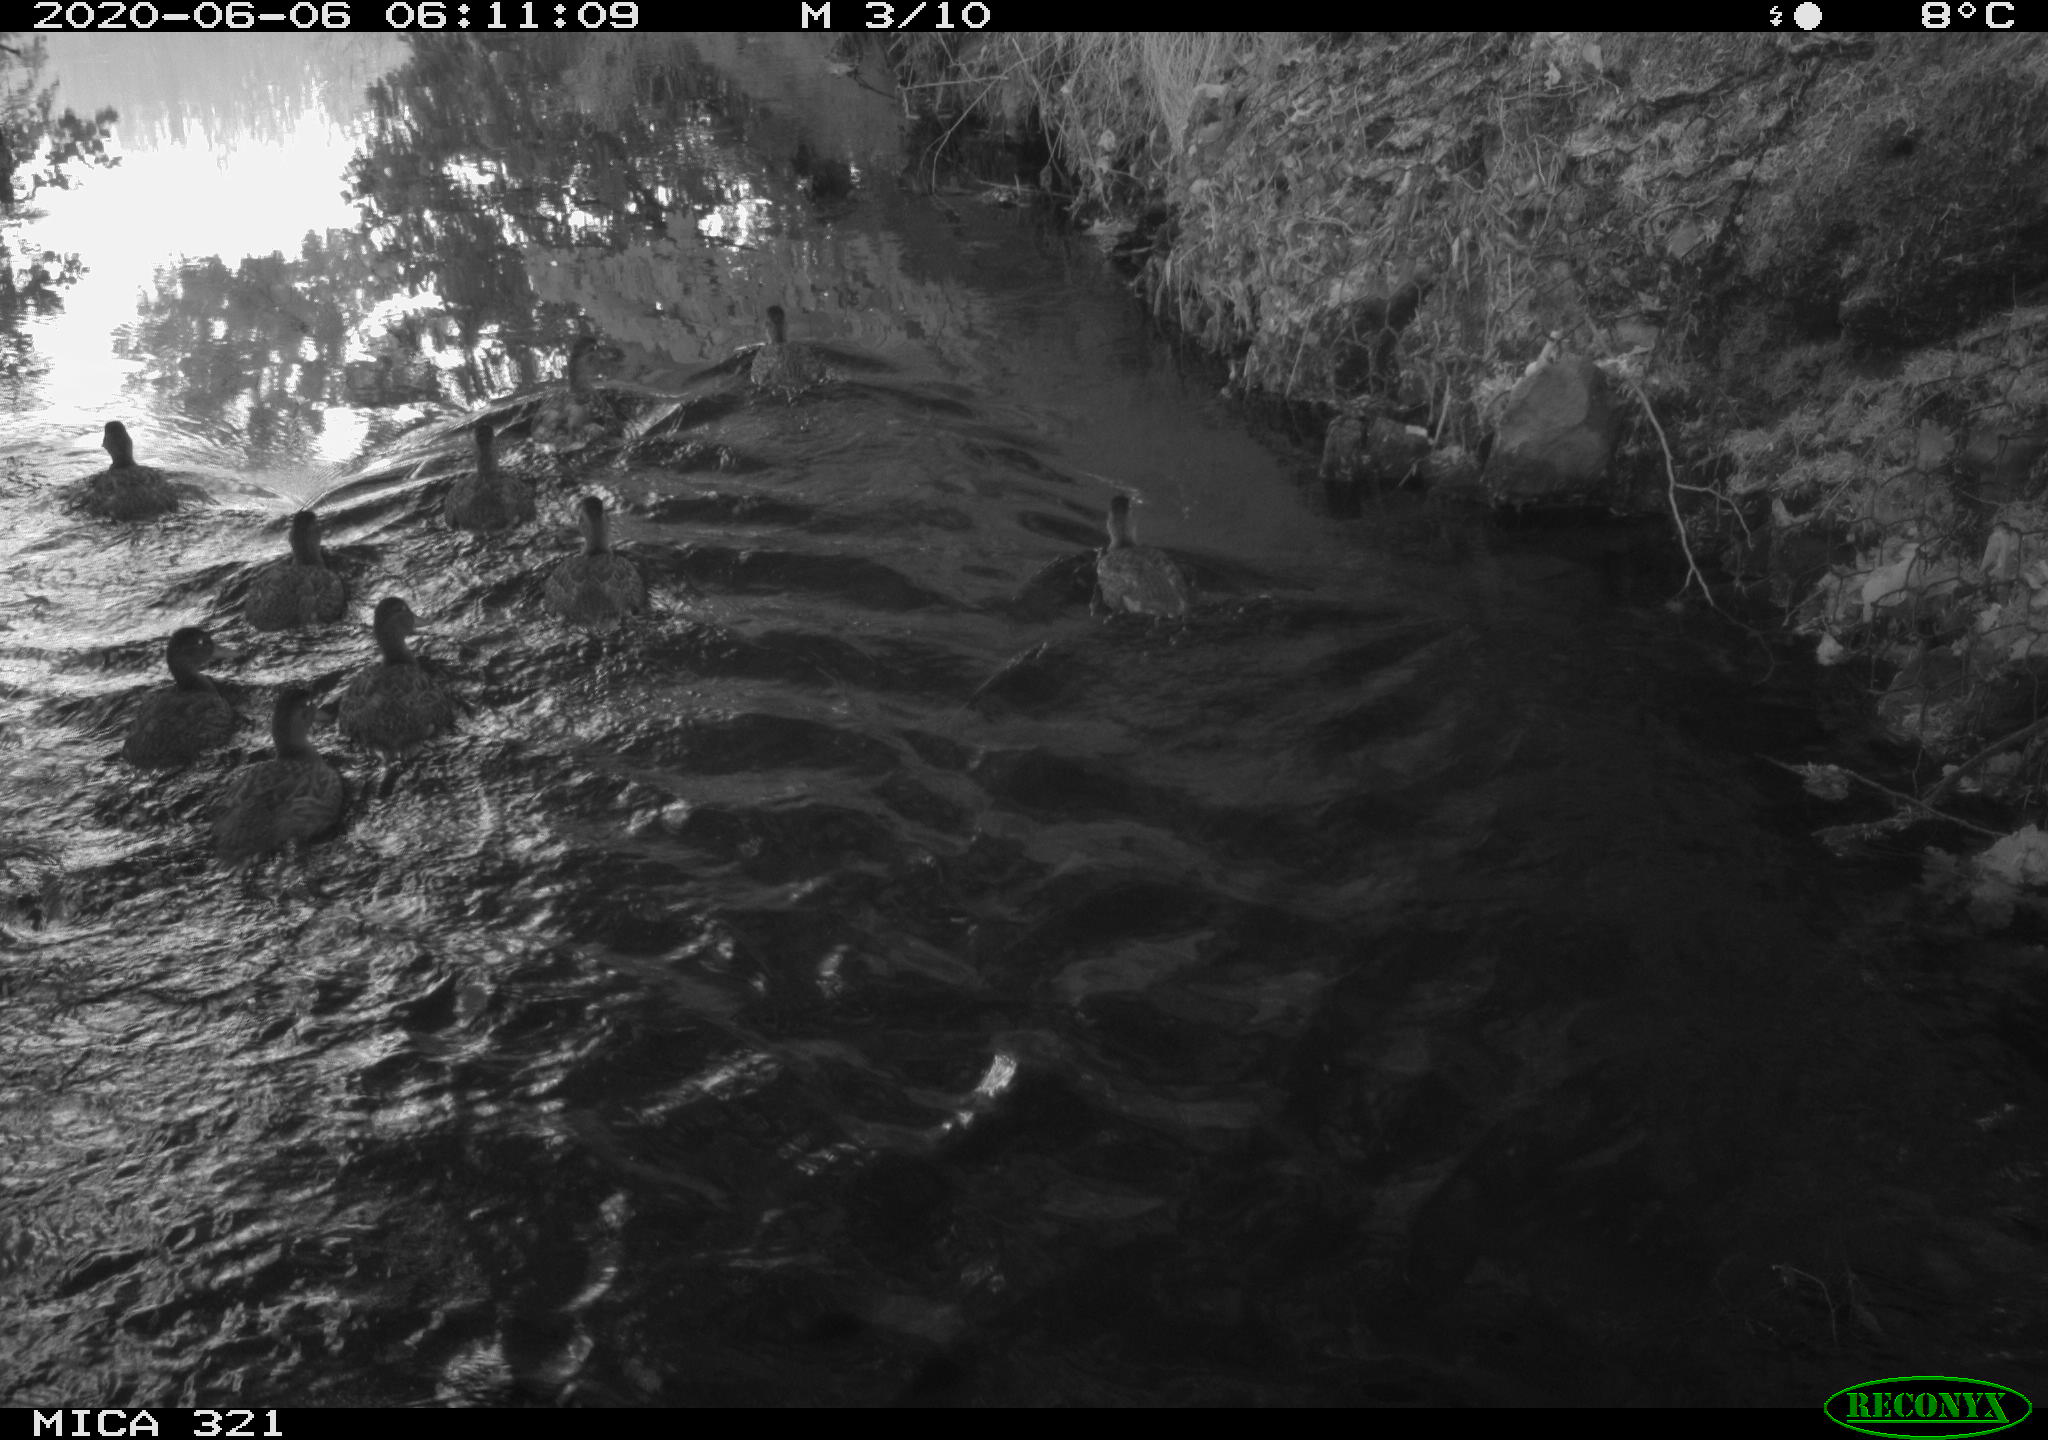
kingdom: Animalia
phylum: Chordata
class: Aves
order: Anseriformes
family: Anatidae
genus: Anas
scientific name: Anas platyrhynchos
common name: Mallard
